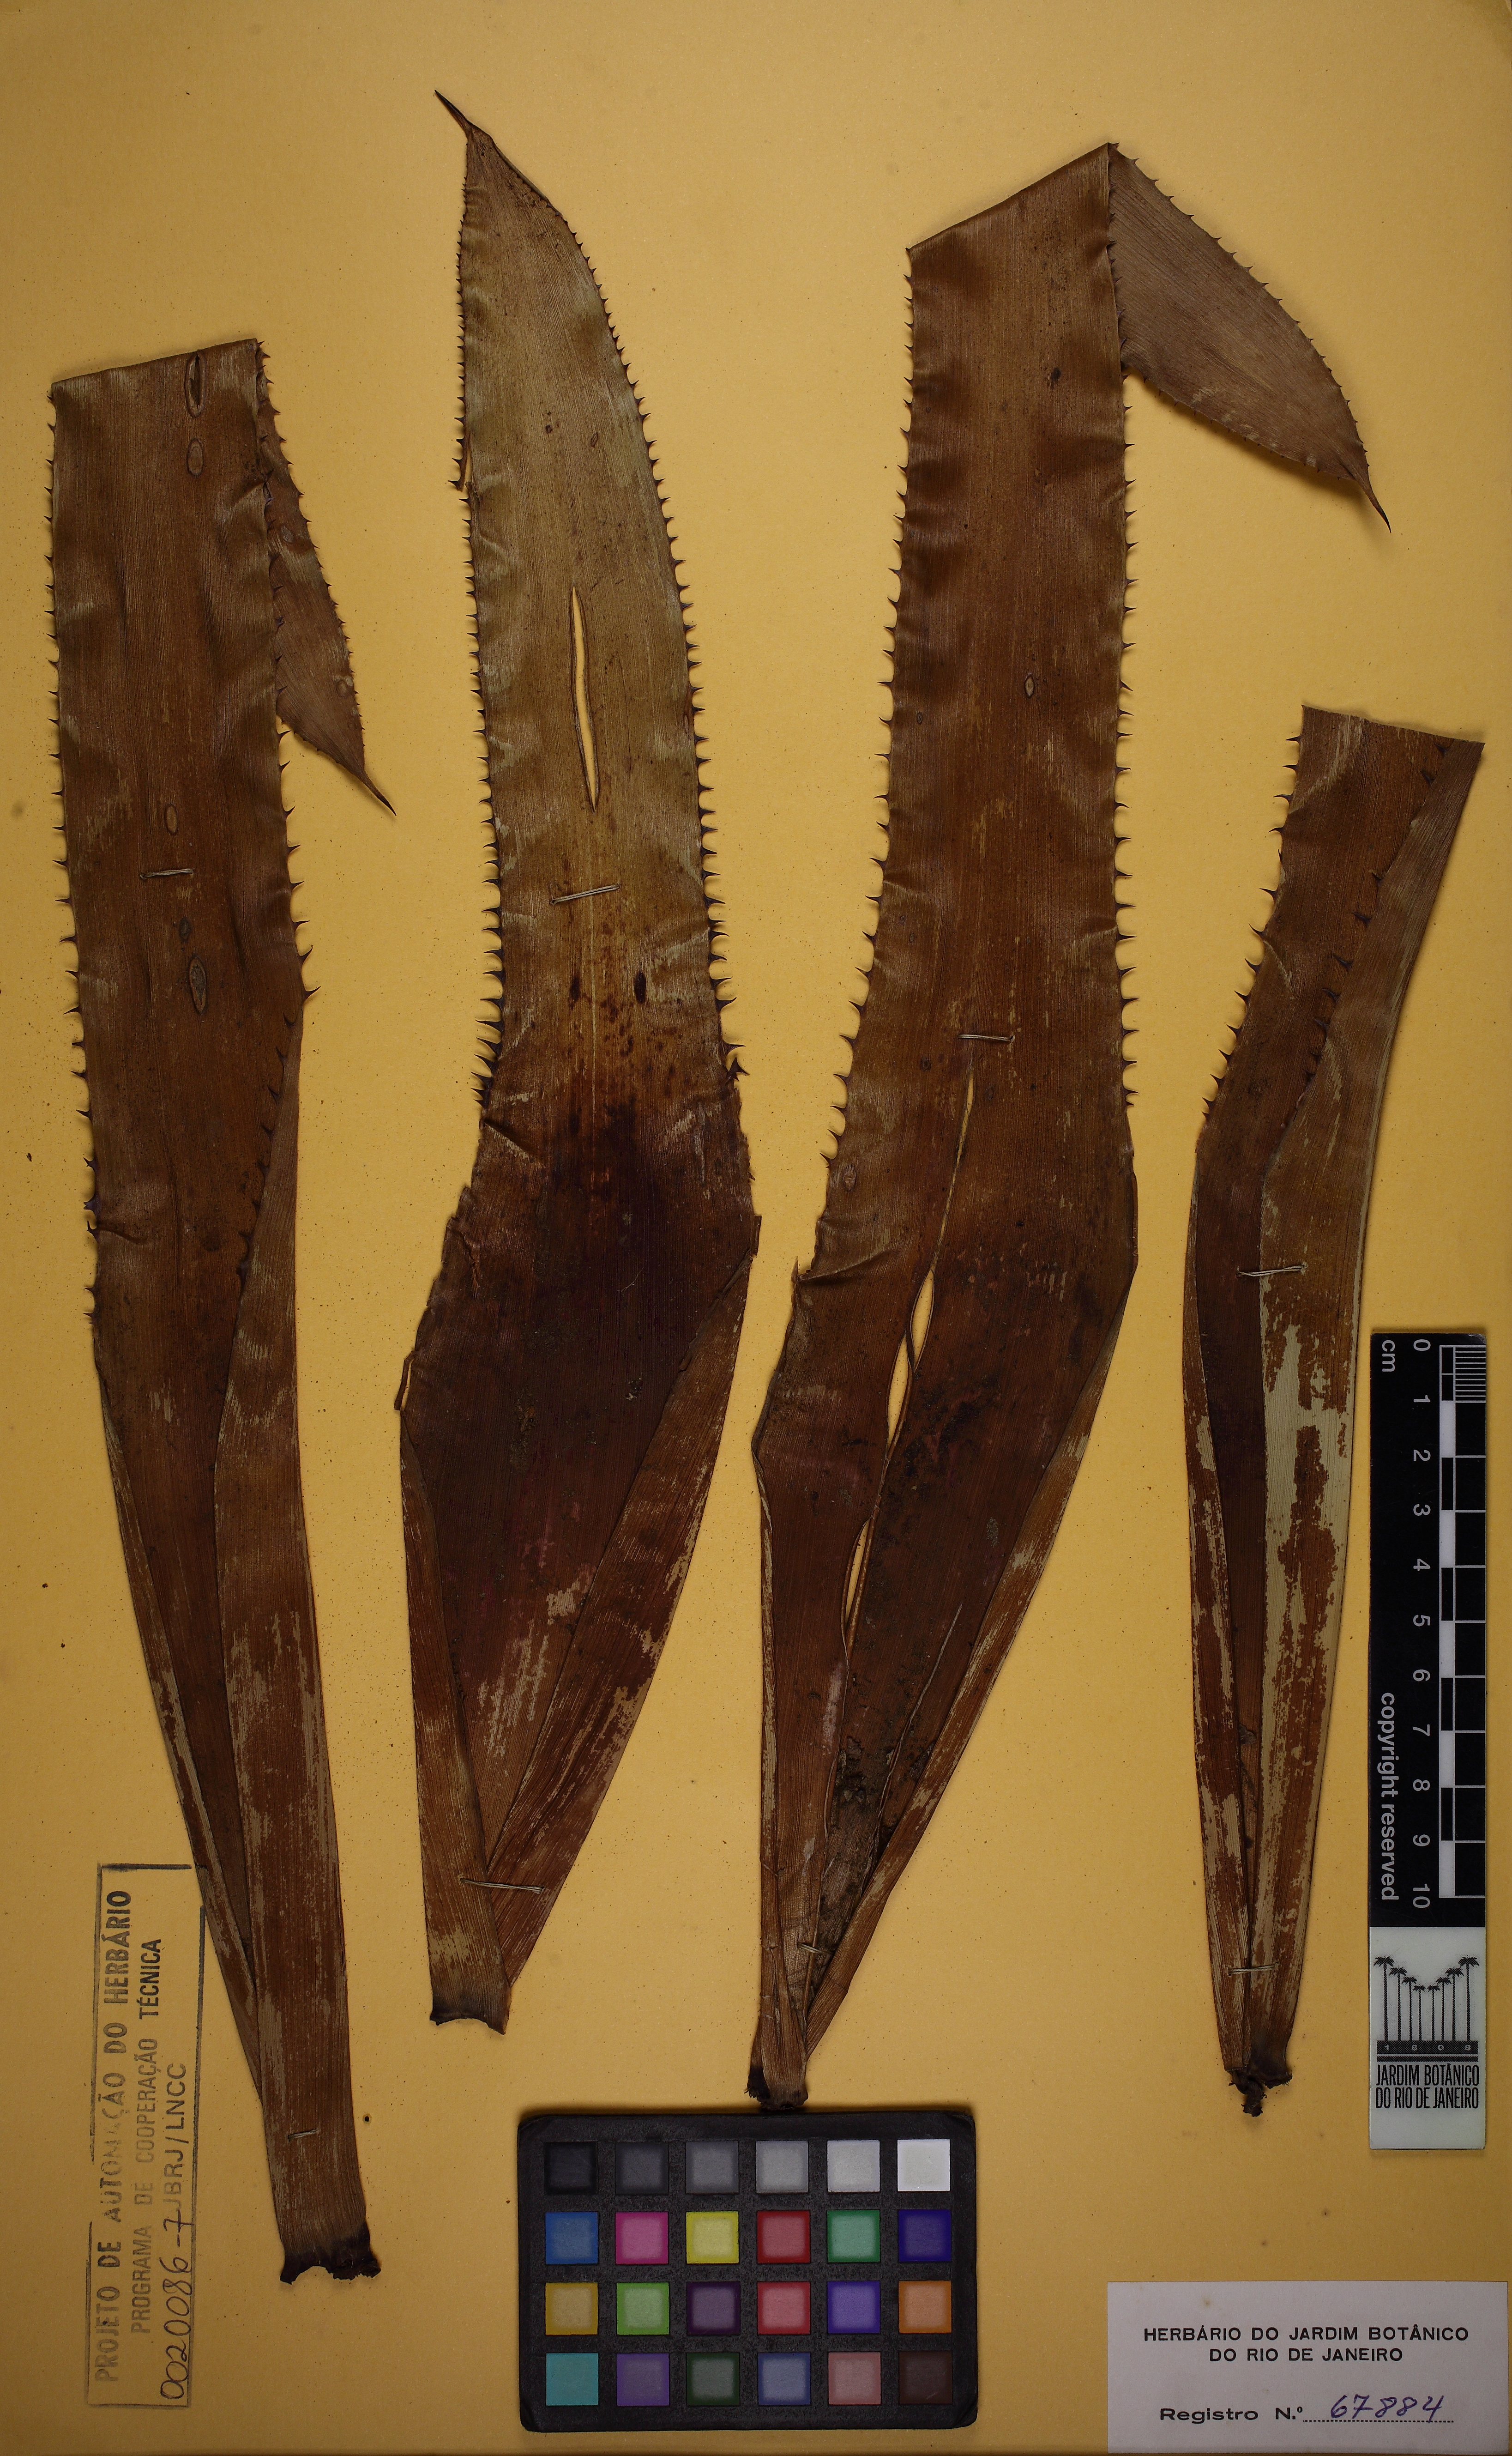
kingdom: Plantae
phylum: Tracheophyta
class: Liliopsida
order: Poales
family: Bromeliaceae
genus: Aechmea
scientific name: Aechmea bocainensis
